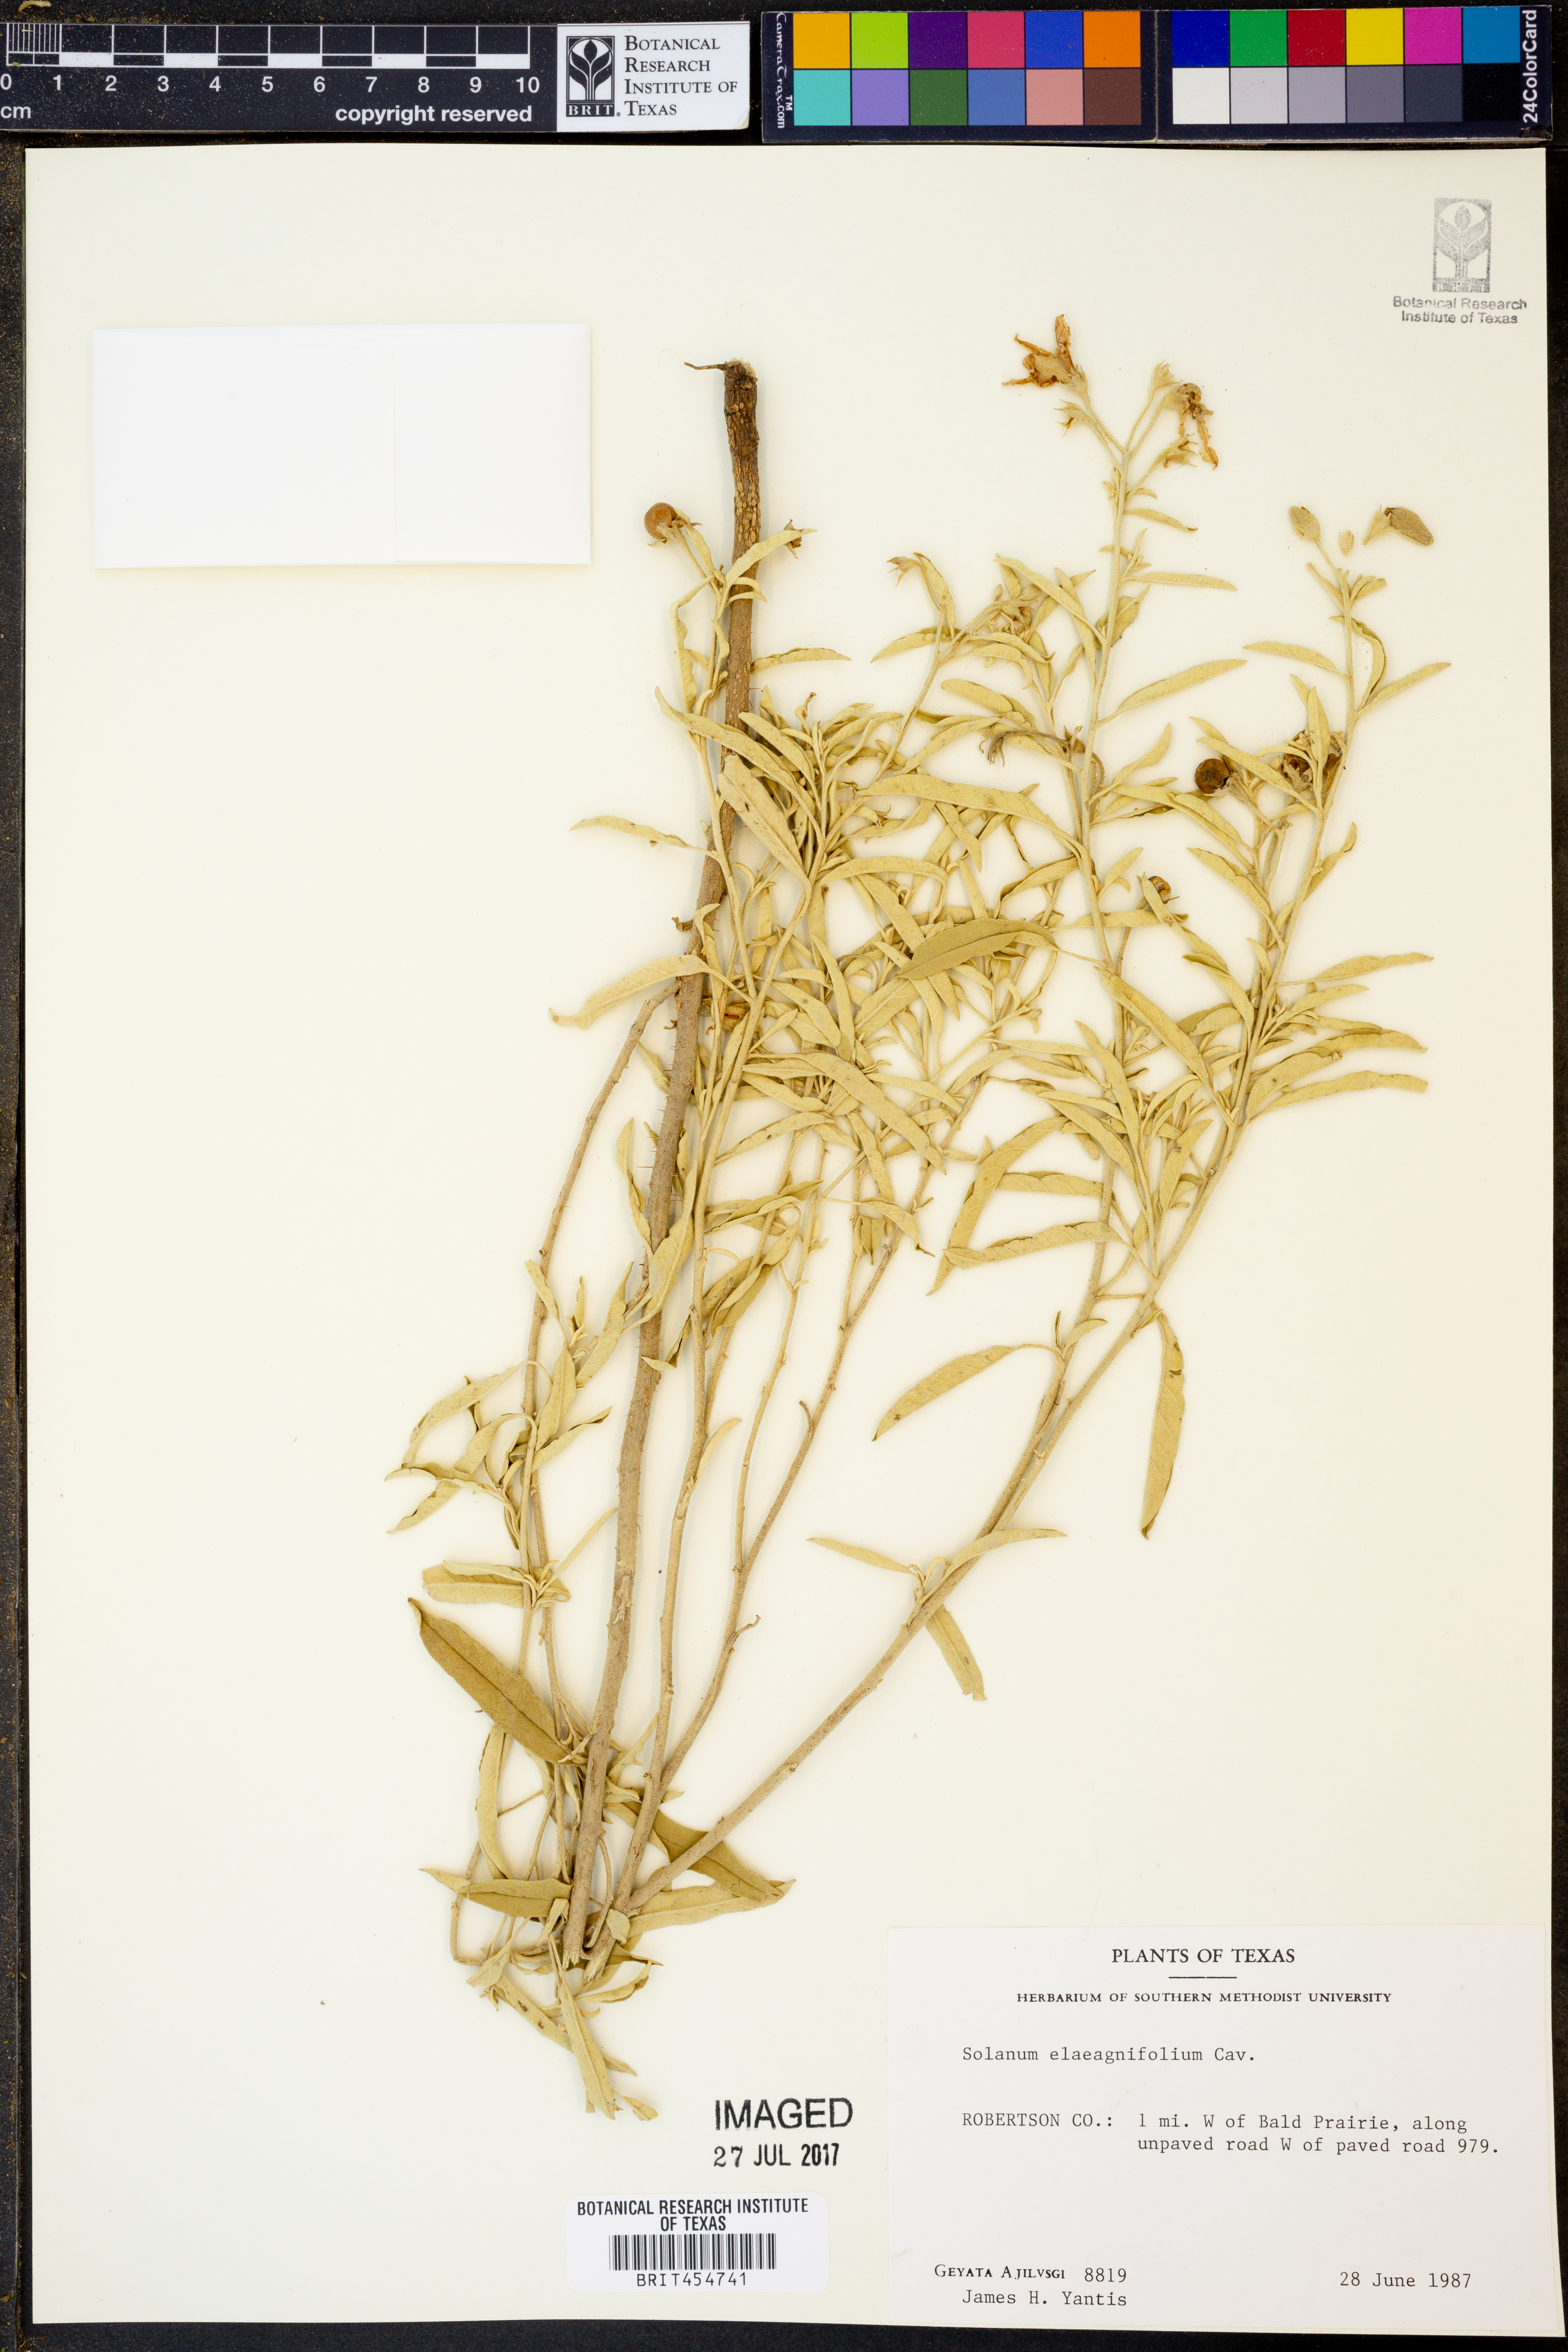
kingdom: Plantae
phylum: Tracheophyta
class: Magnoliopsida
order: Solanales
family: Solanaceae
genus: Solanum
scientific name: Solanum elaeagnifolium
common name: Silverleaf nightshade
